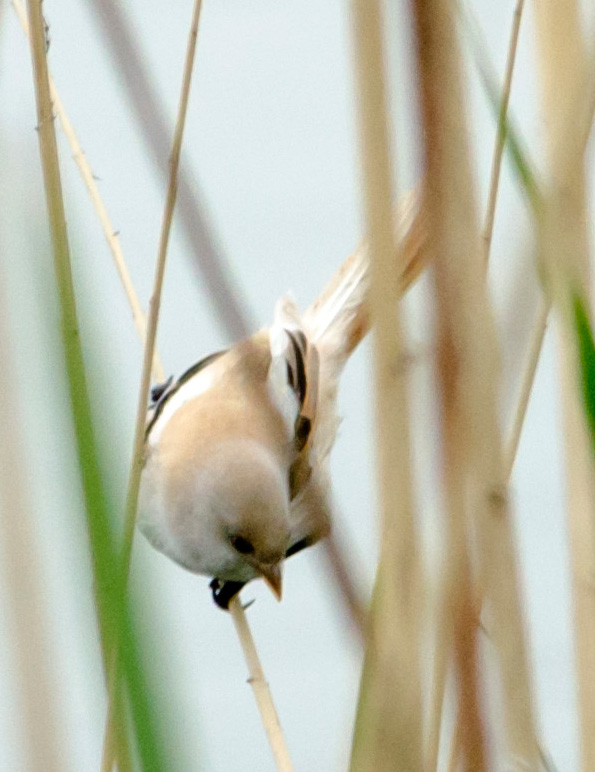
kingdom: Animalia
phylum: Chordata
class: Aves
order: Passeriformes
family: Panuridae
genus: Panurus
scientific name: Panurus biarmicus
